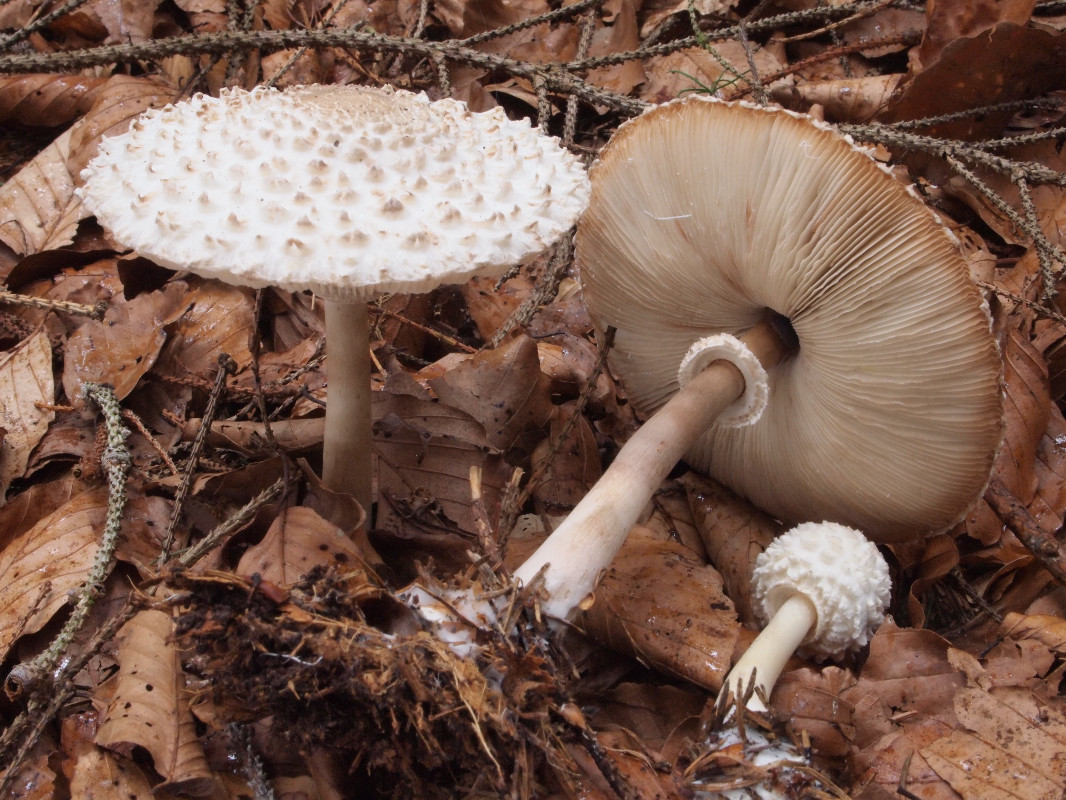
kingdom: Fungi
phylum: Basidiomycota
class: Agaricomycetes
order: Agaricales
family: Agaricaceae
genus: Leucoagaricus
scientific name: Leucoagaricus nympharum
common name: gran-silkehat
